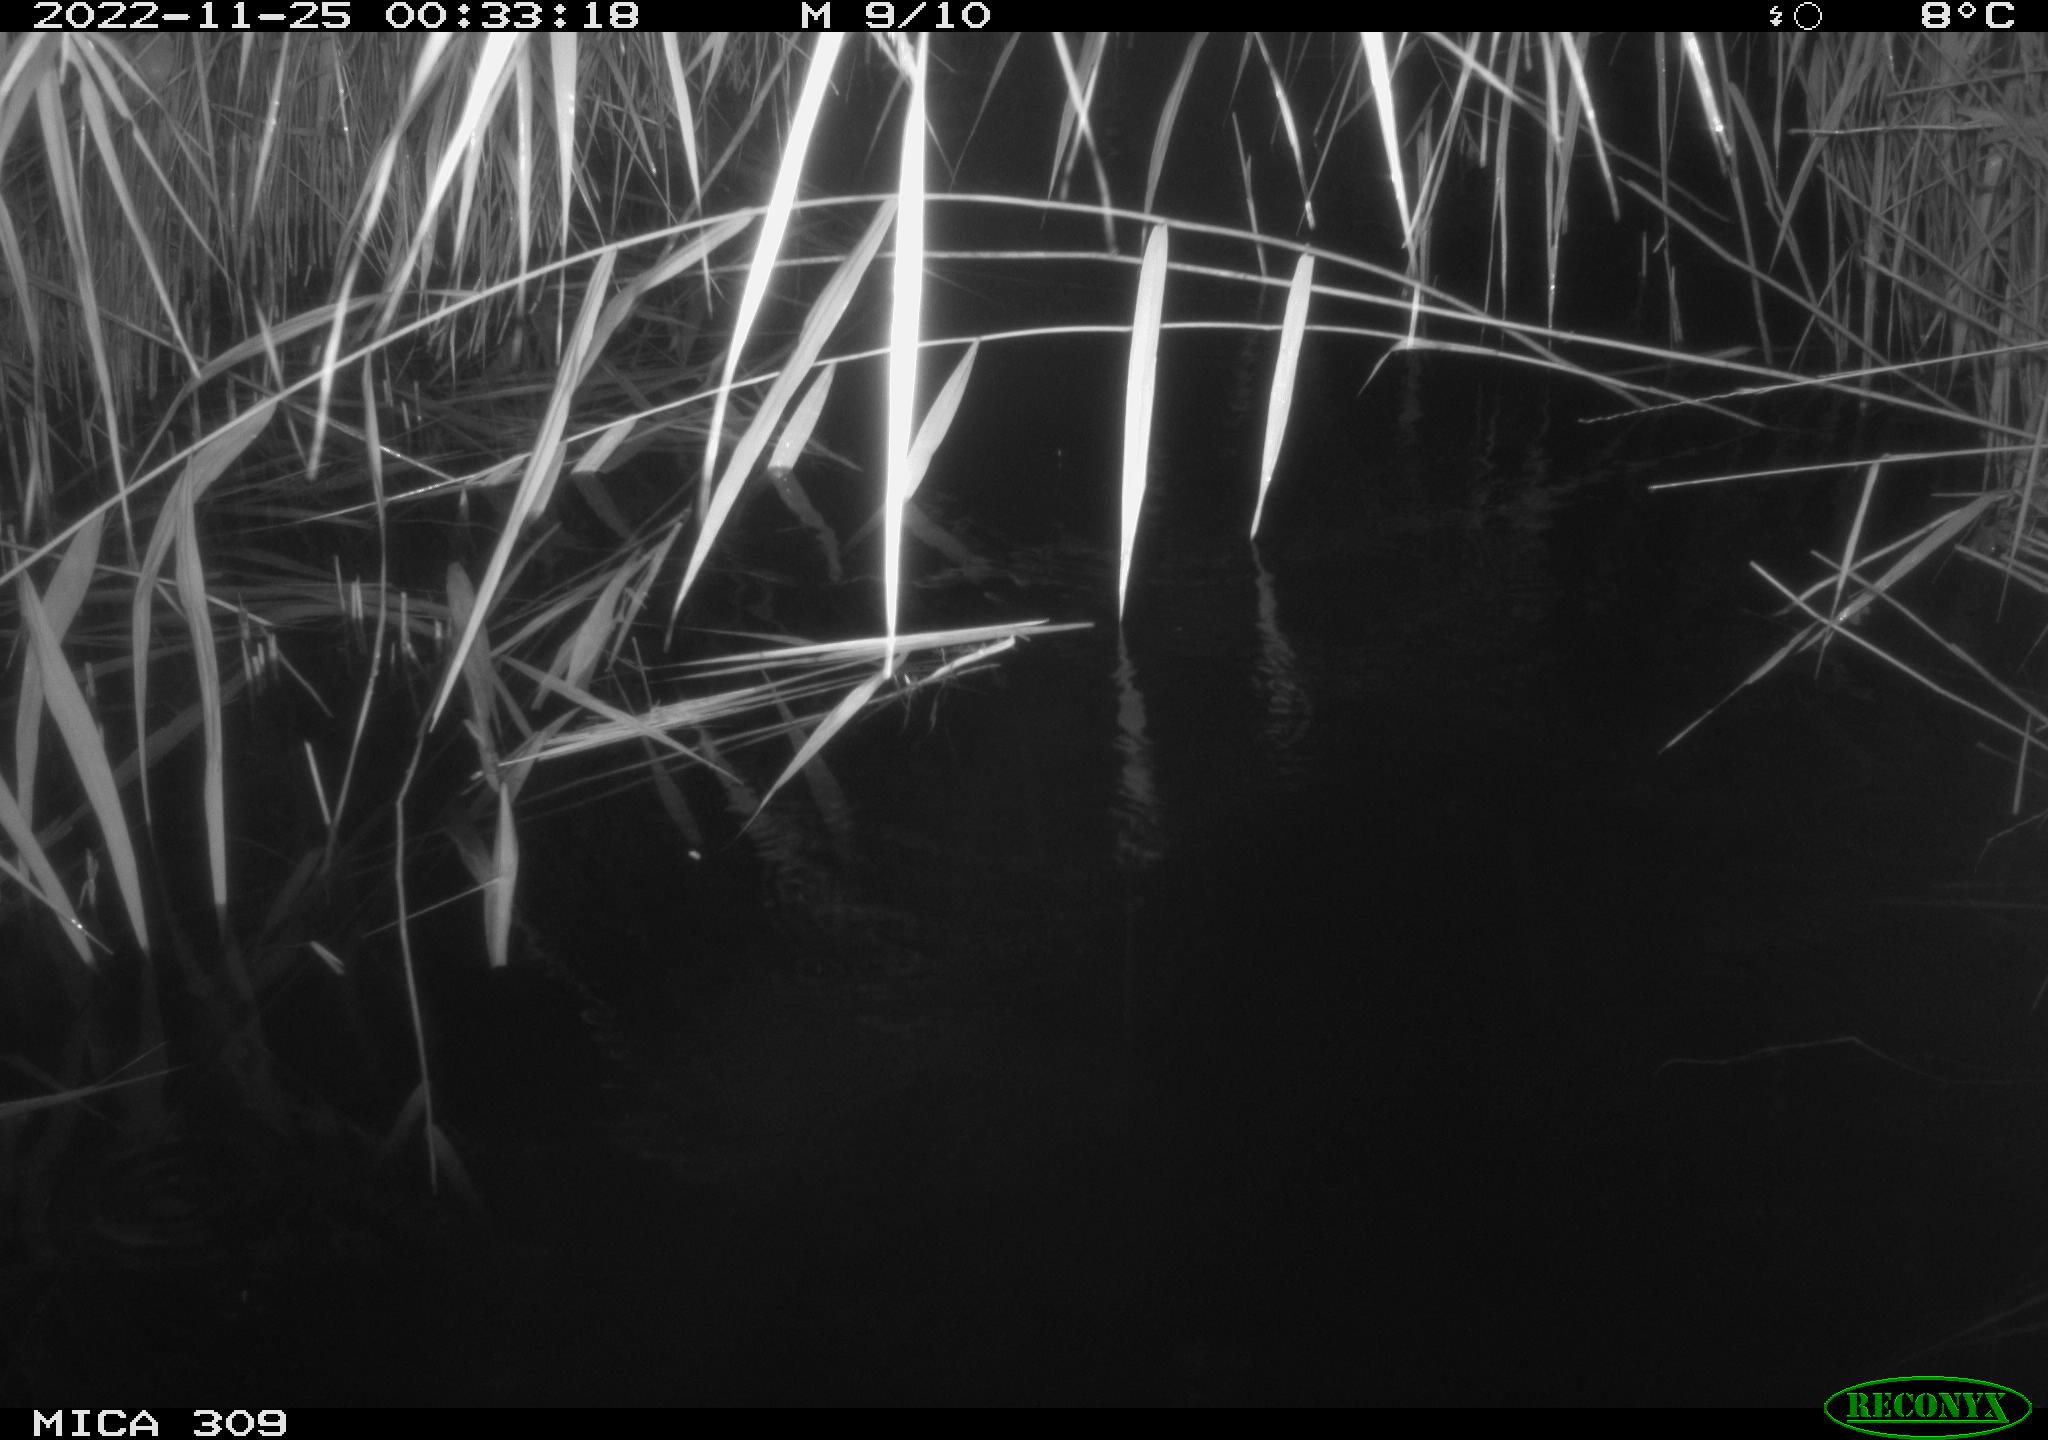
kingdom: Animalia
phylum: Chordata
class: Mammalia
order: Rodentia
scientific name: Rodentia
